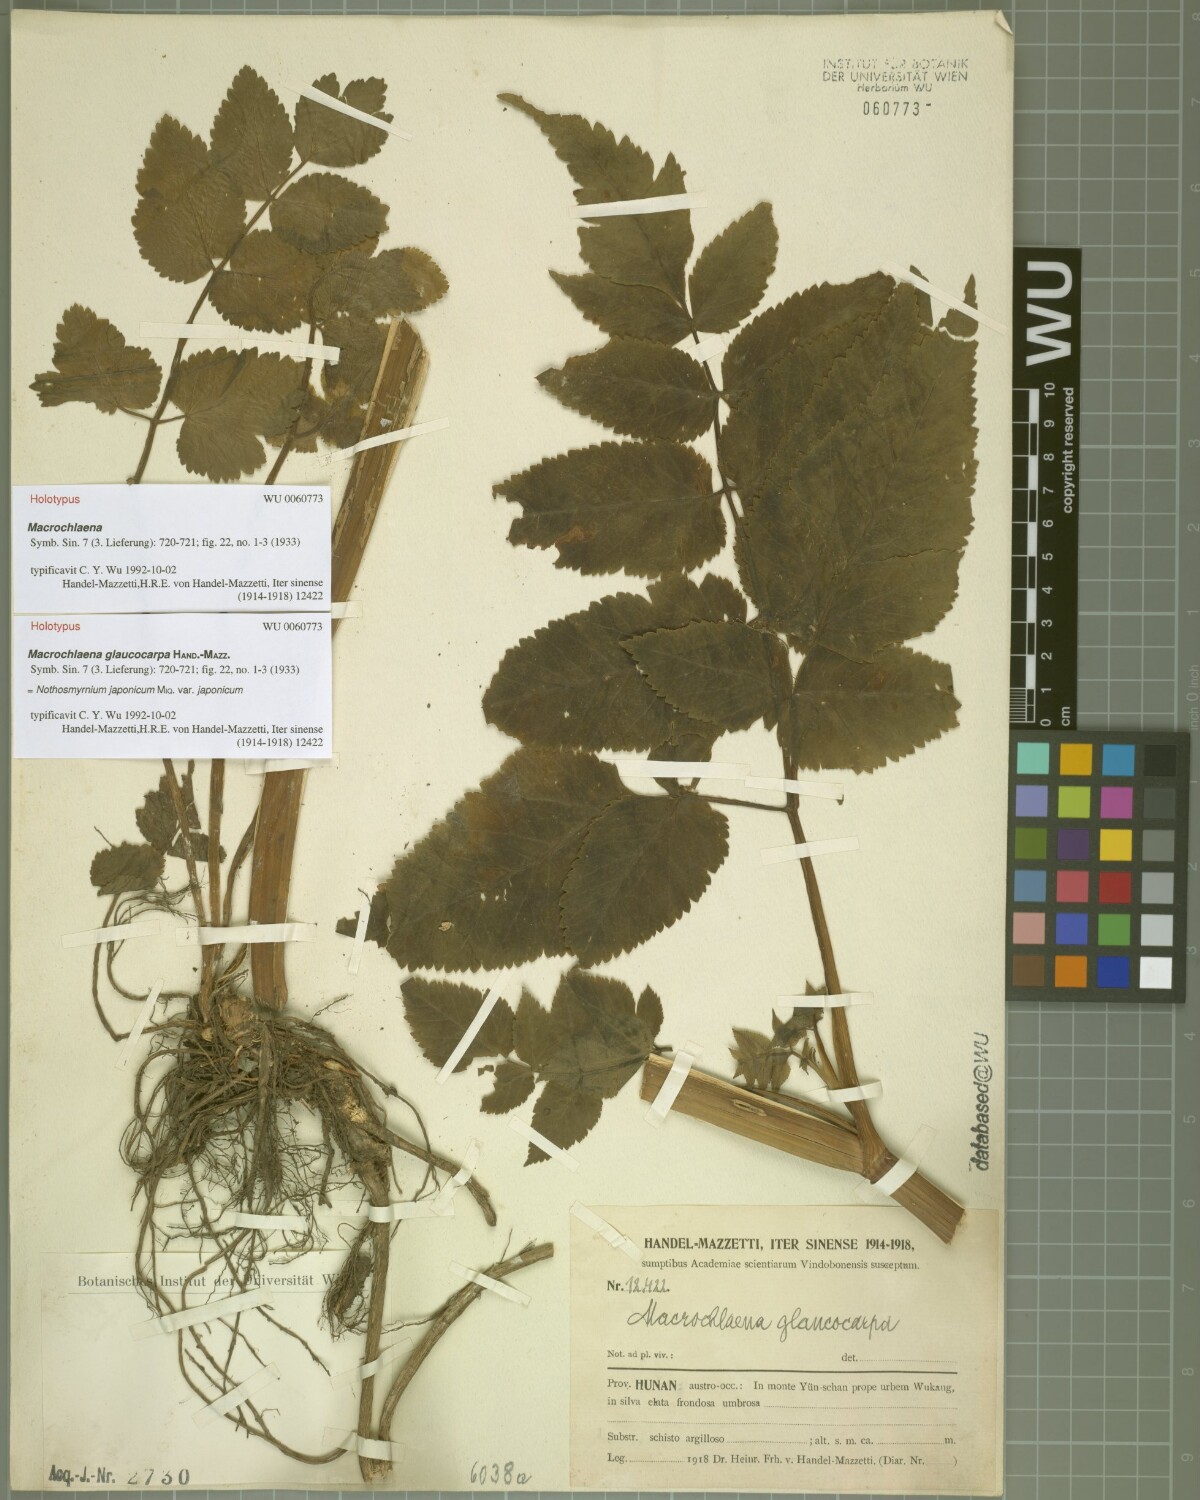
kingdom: Plantae
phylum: Tracheophyta
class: Magnoliopsida
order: Apiales
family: Apiaceae
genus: Nothosmyrnium
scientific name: Nothosmyrnium japonicum
